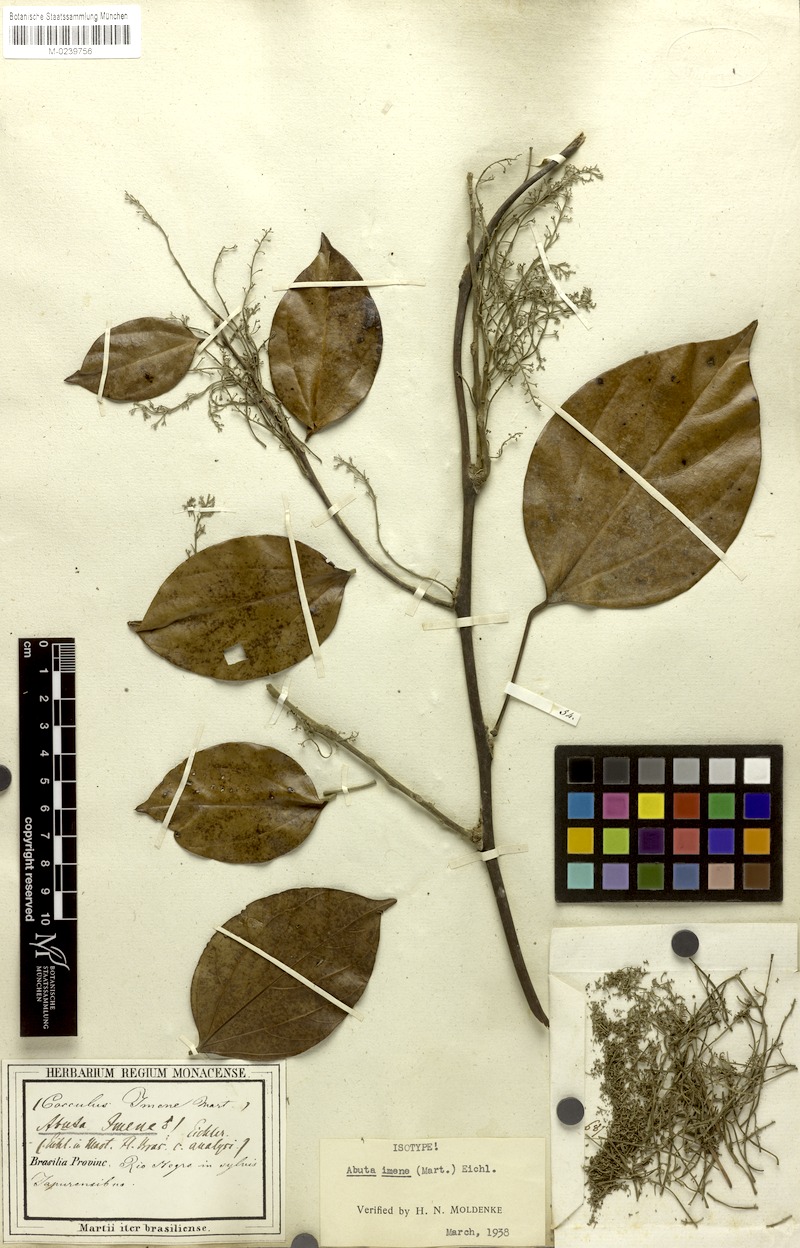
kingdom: Plantae
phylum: Tracheophyta
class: Magnoliopsida
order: Ranunculales
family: Menispermaceae
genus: Abuta
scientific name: Abuta imene
